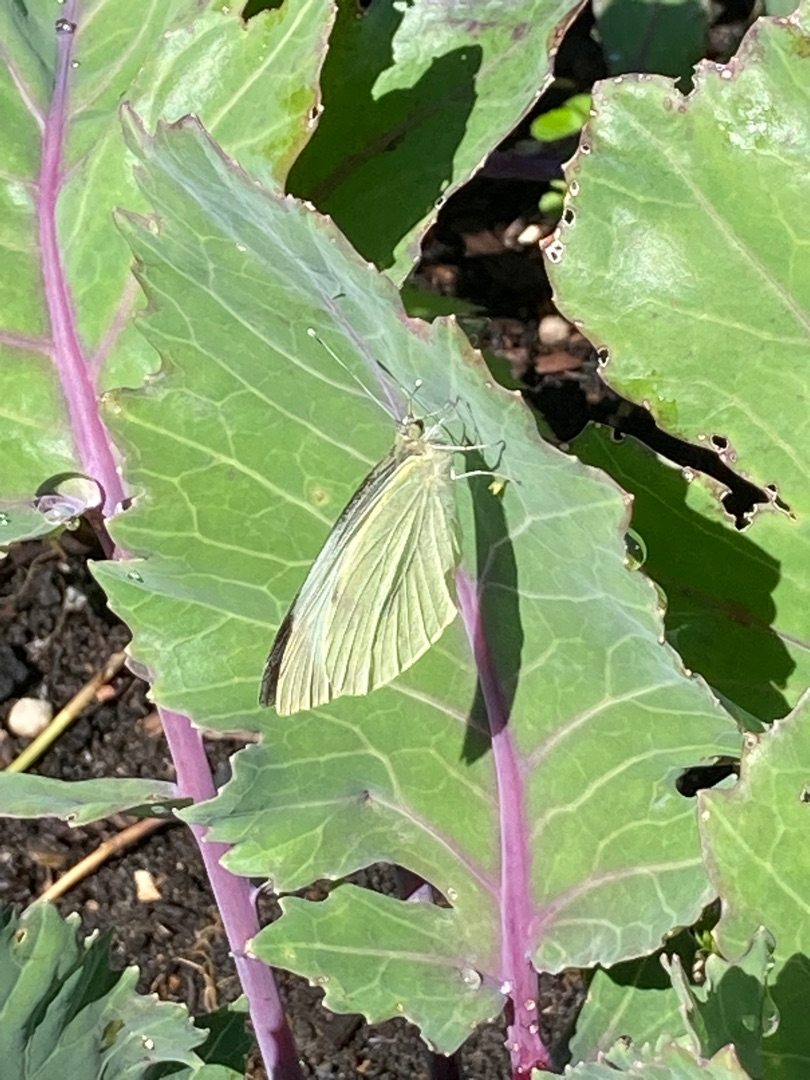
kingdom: Animalia
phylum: Arthropoda
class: Insecta
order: Lepidoptera
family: Pieridae
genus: Pieris
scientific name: Pieris brassicae
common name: Stor kålsommerfugl
